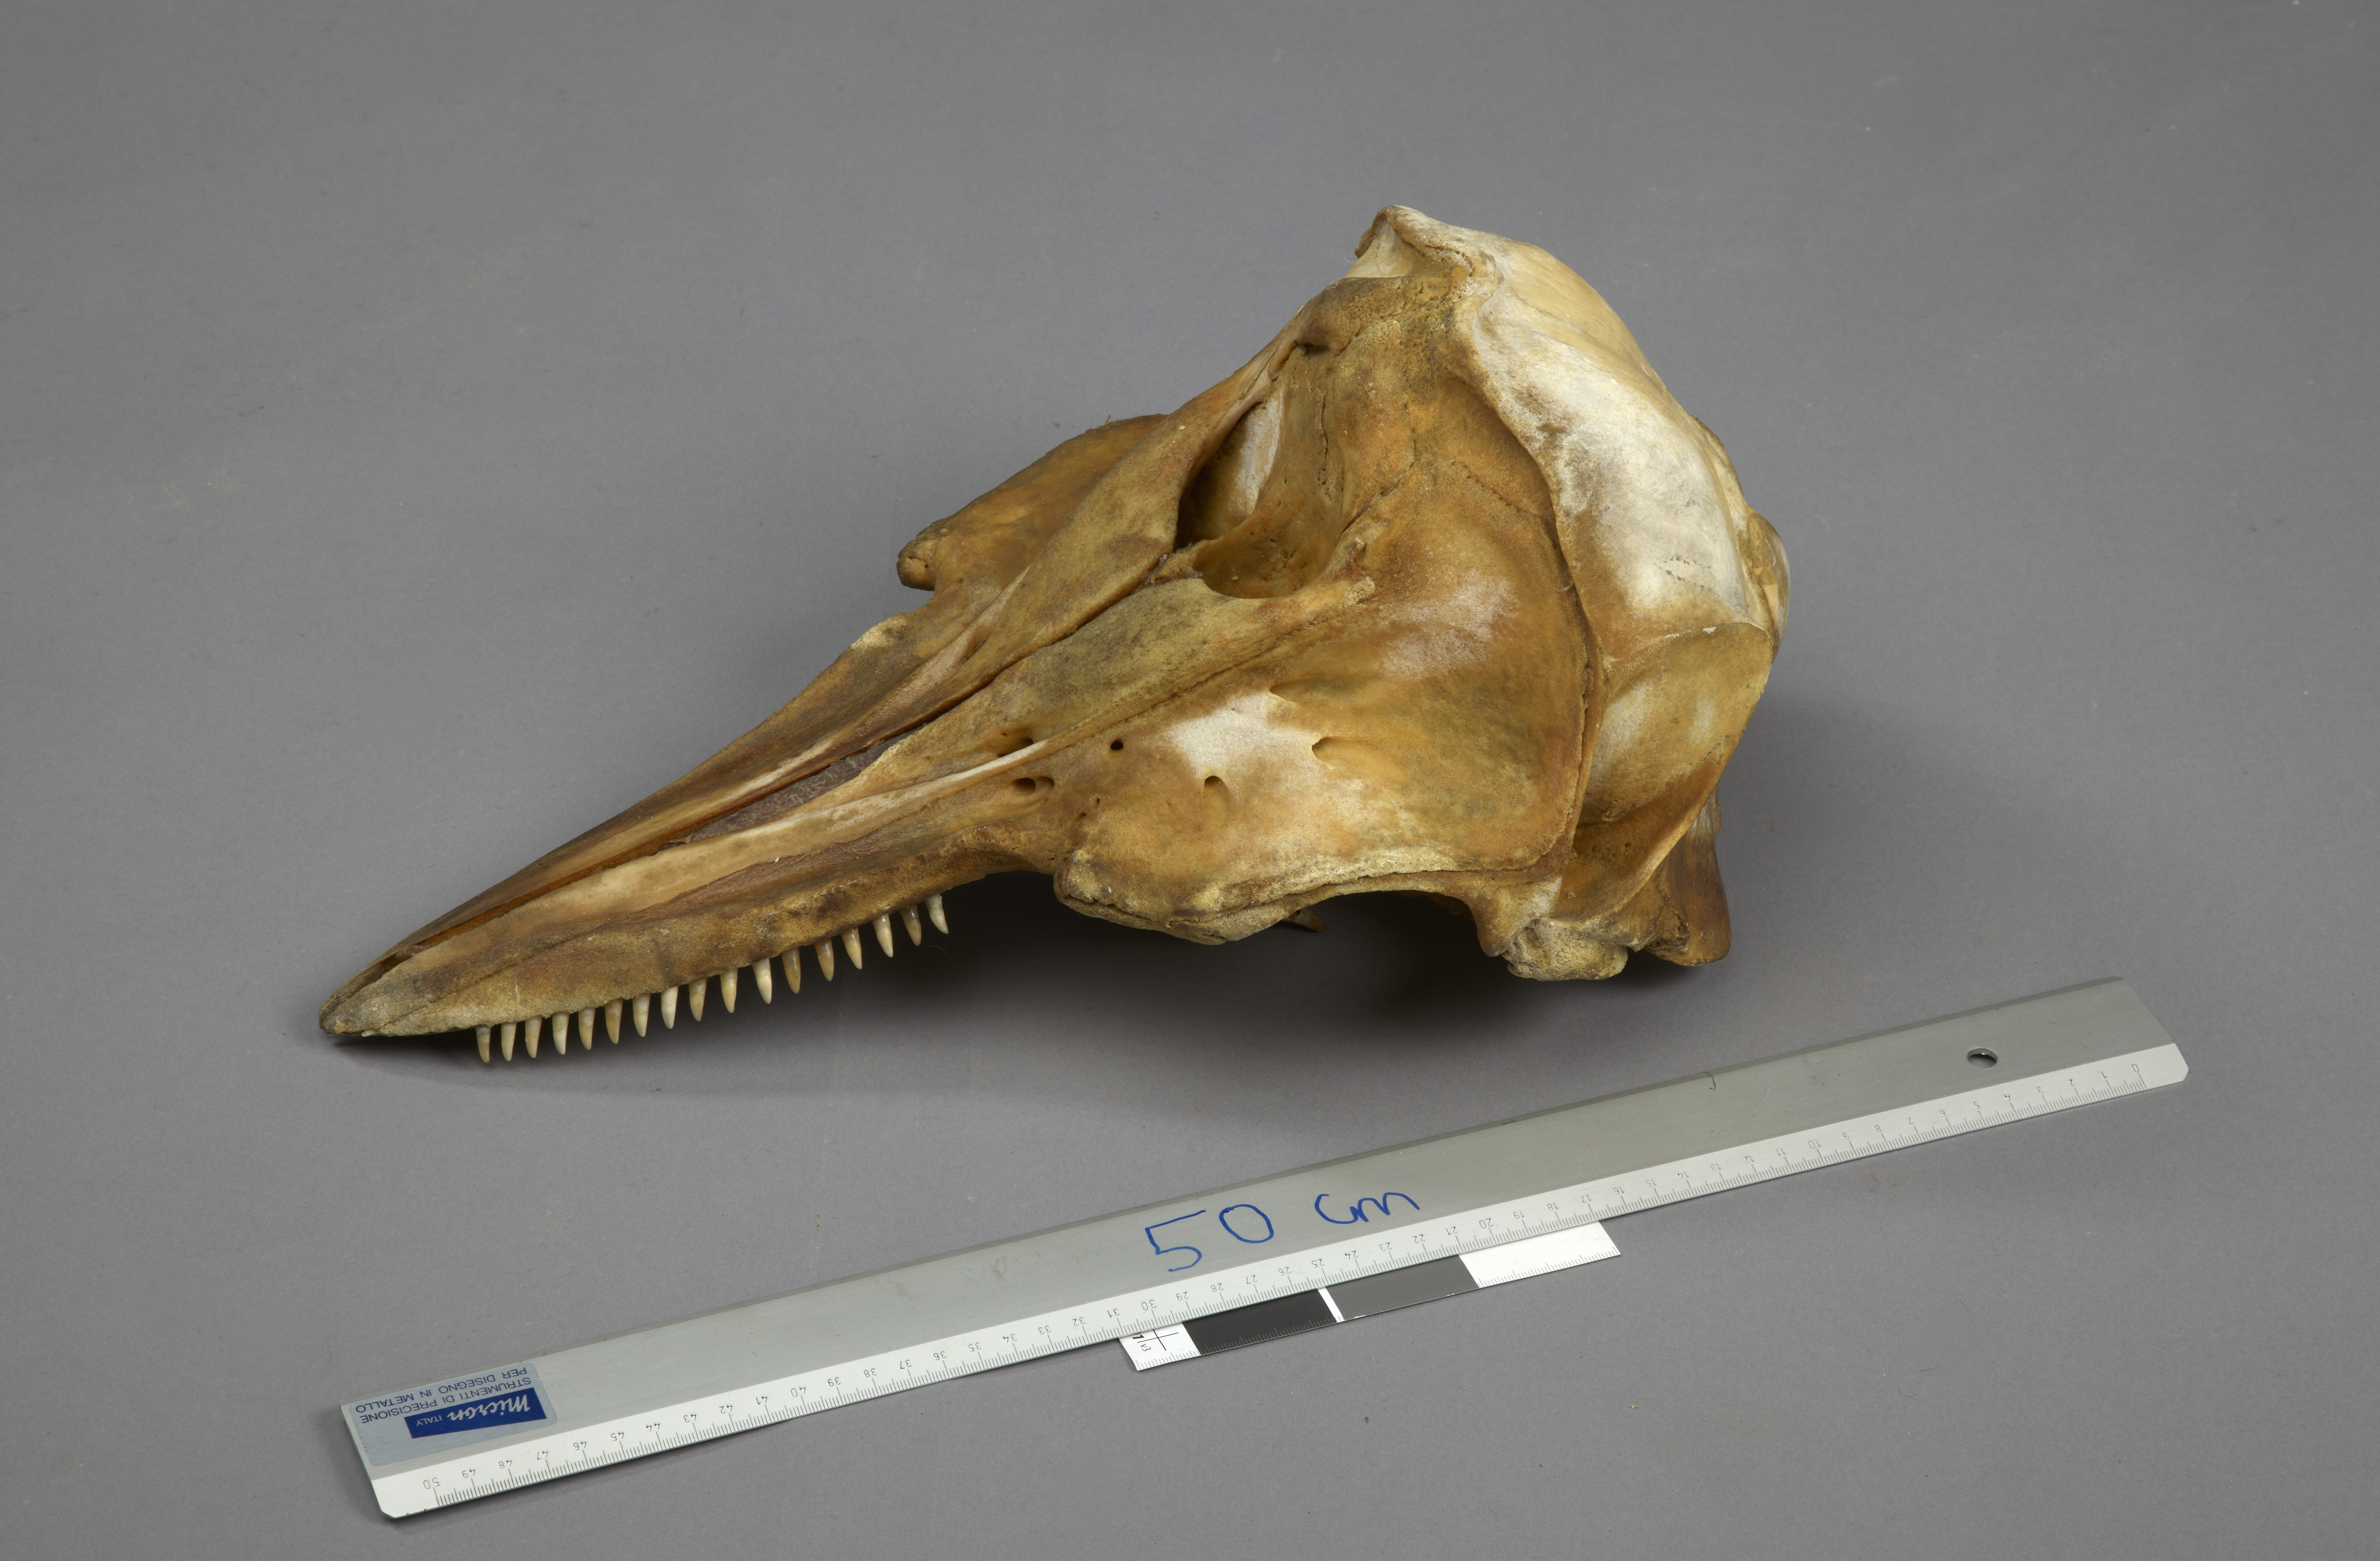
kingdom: Animalia
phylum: Chordata
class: Mammalia
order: Cetacea
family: Delphinidae
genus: Lagenorhynchus
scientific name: Lagenorhynchus albirostris
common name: White-beaked dolphin
